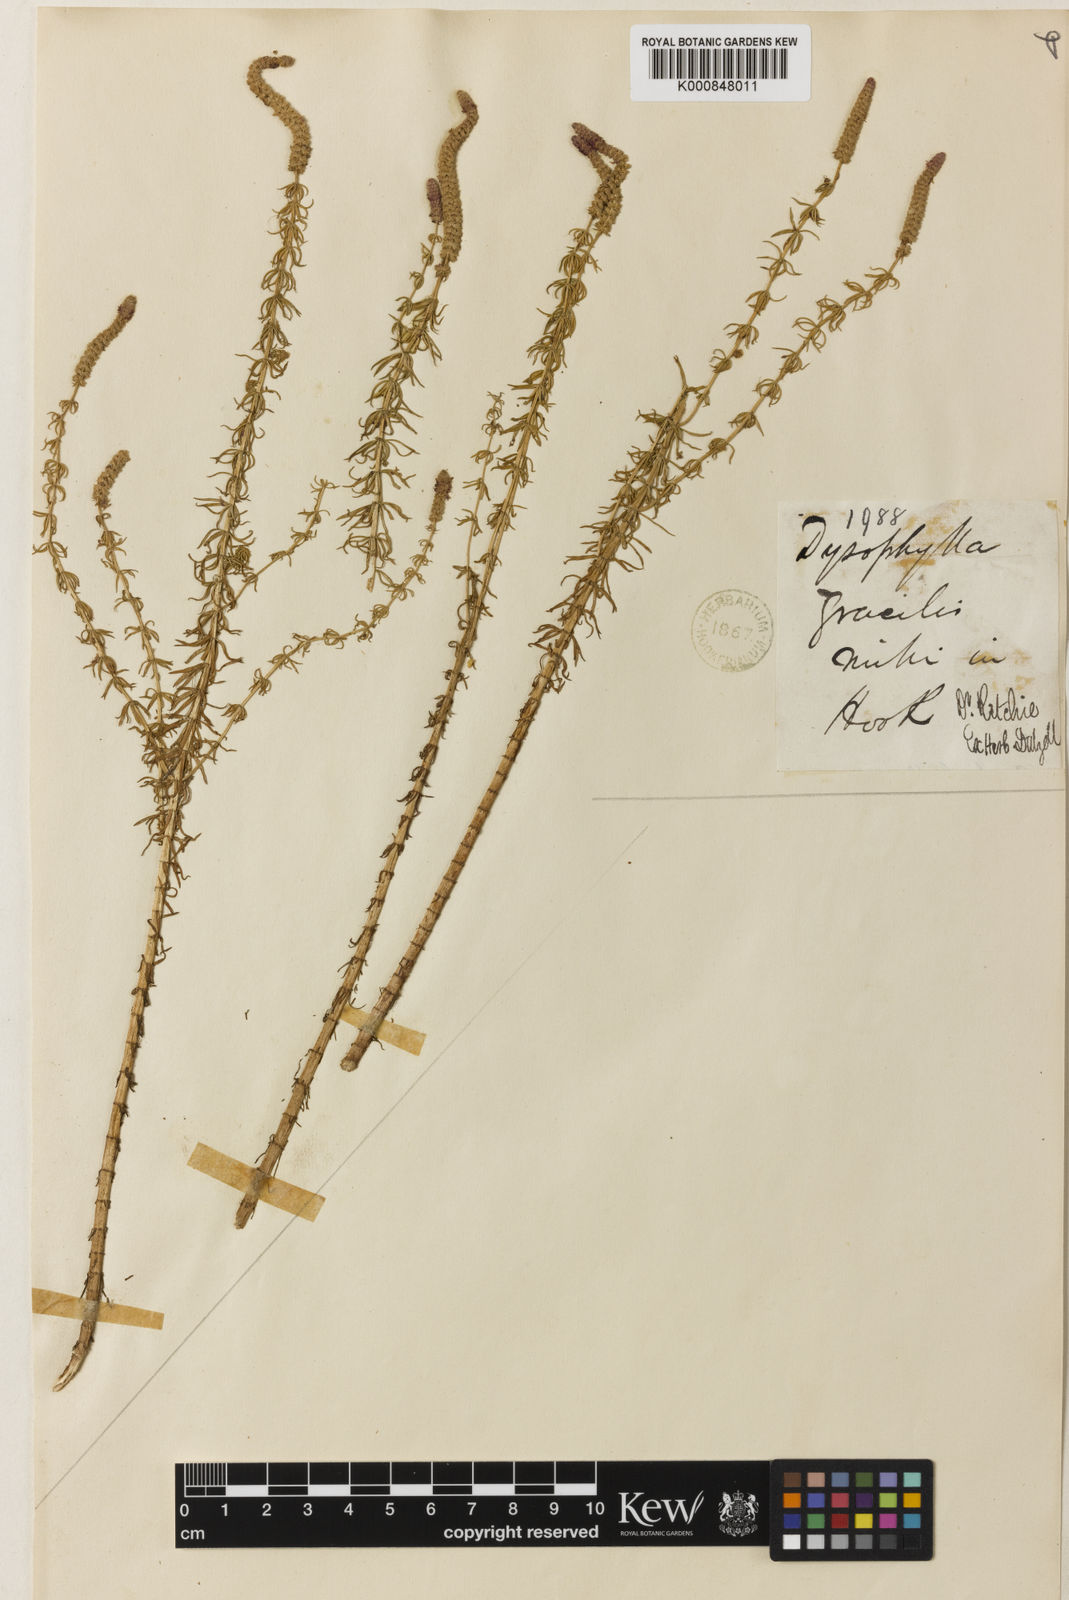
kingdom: Plantae
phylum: Tracheophyta
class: Magnoliopsida
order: Lamiales
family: Lamiaceae
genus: Pogostemon
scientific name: Pogostemon erectus
